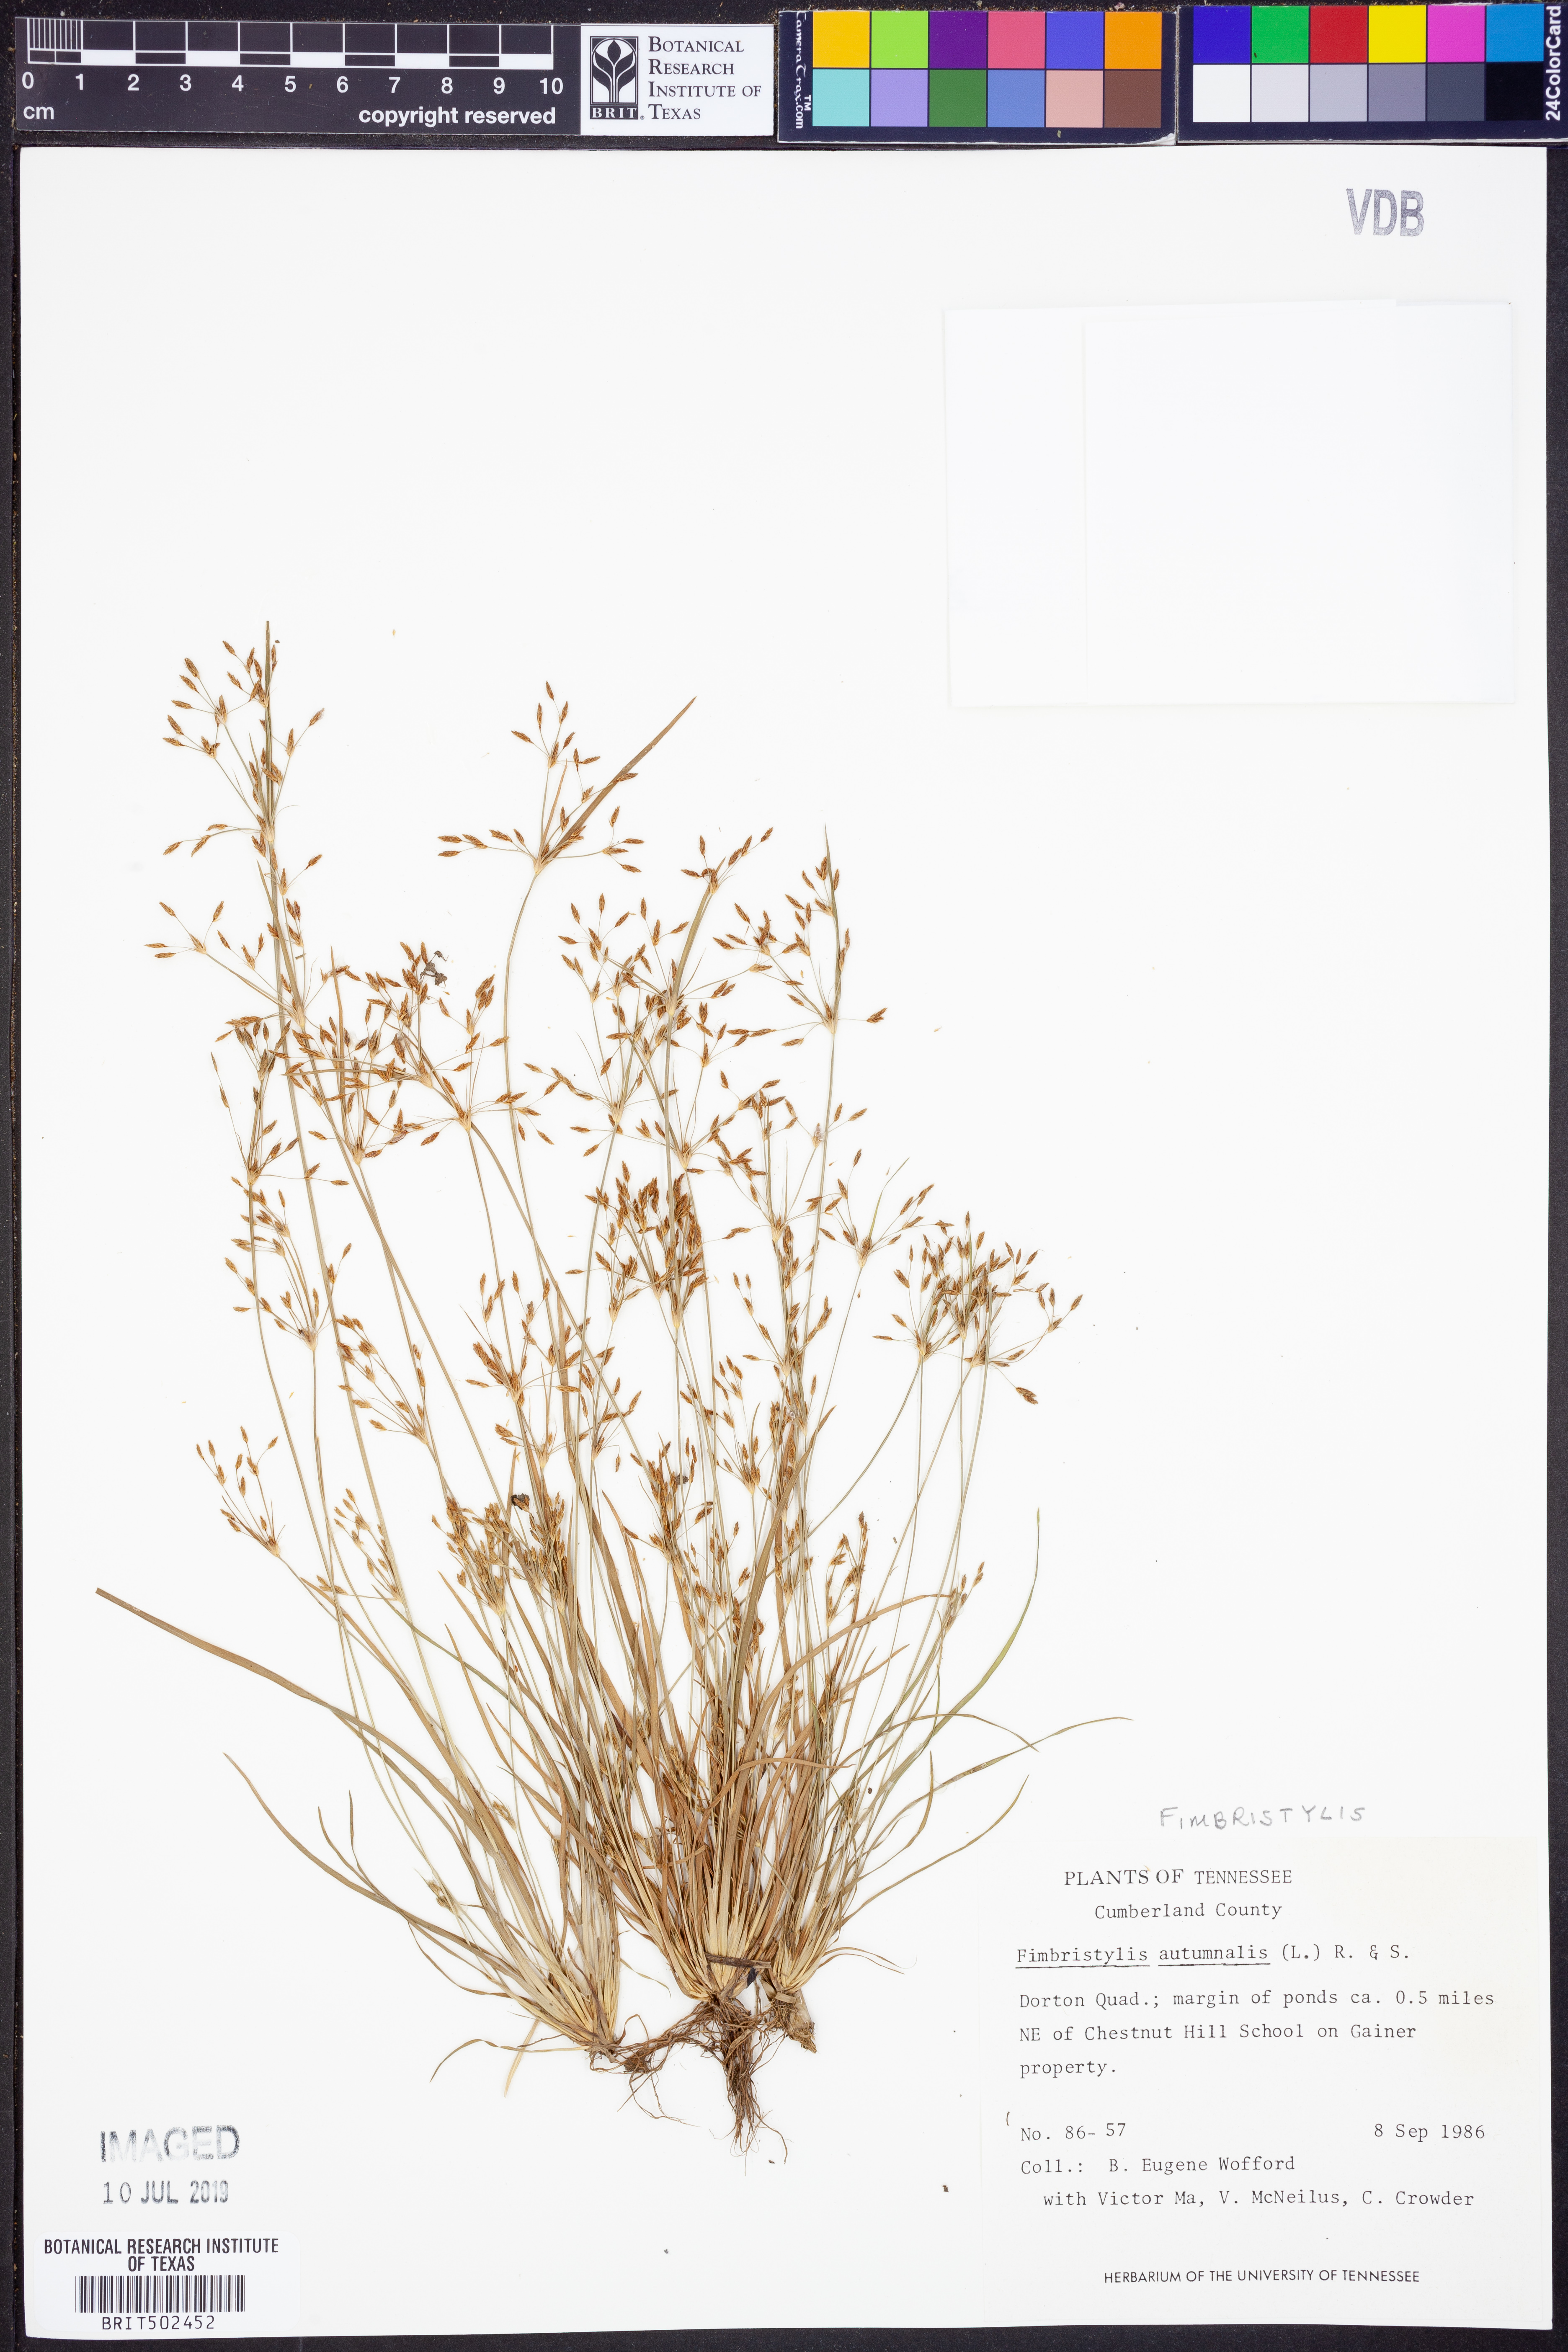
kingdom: Plantae
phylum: Tracheophyta
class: Liliopsida
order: Poales
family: Cyperaceae
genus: Fimbristylis
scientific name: Fimbristylis autumnalis
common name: Slender fimbristylis
